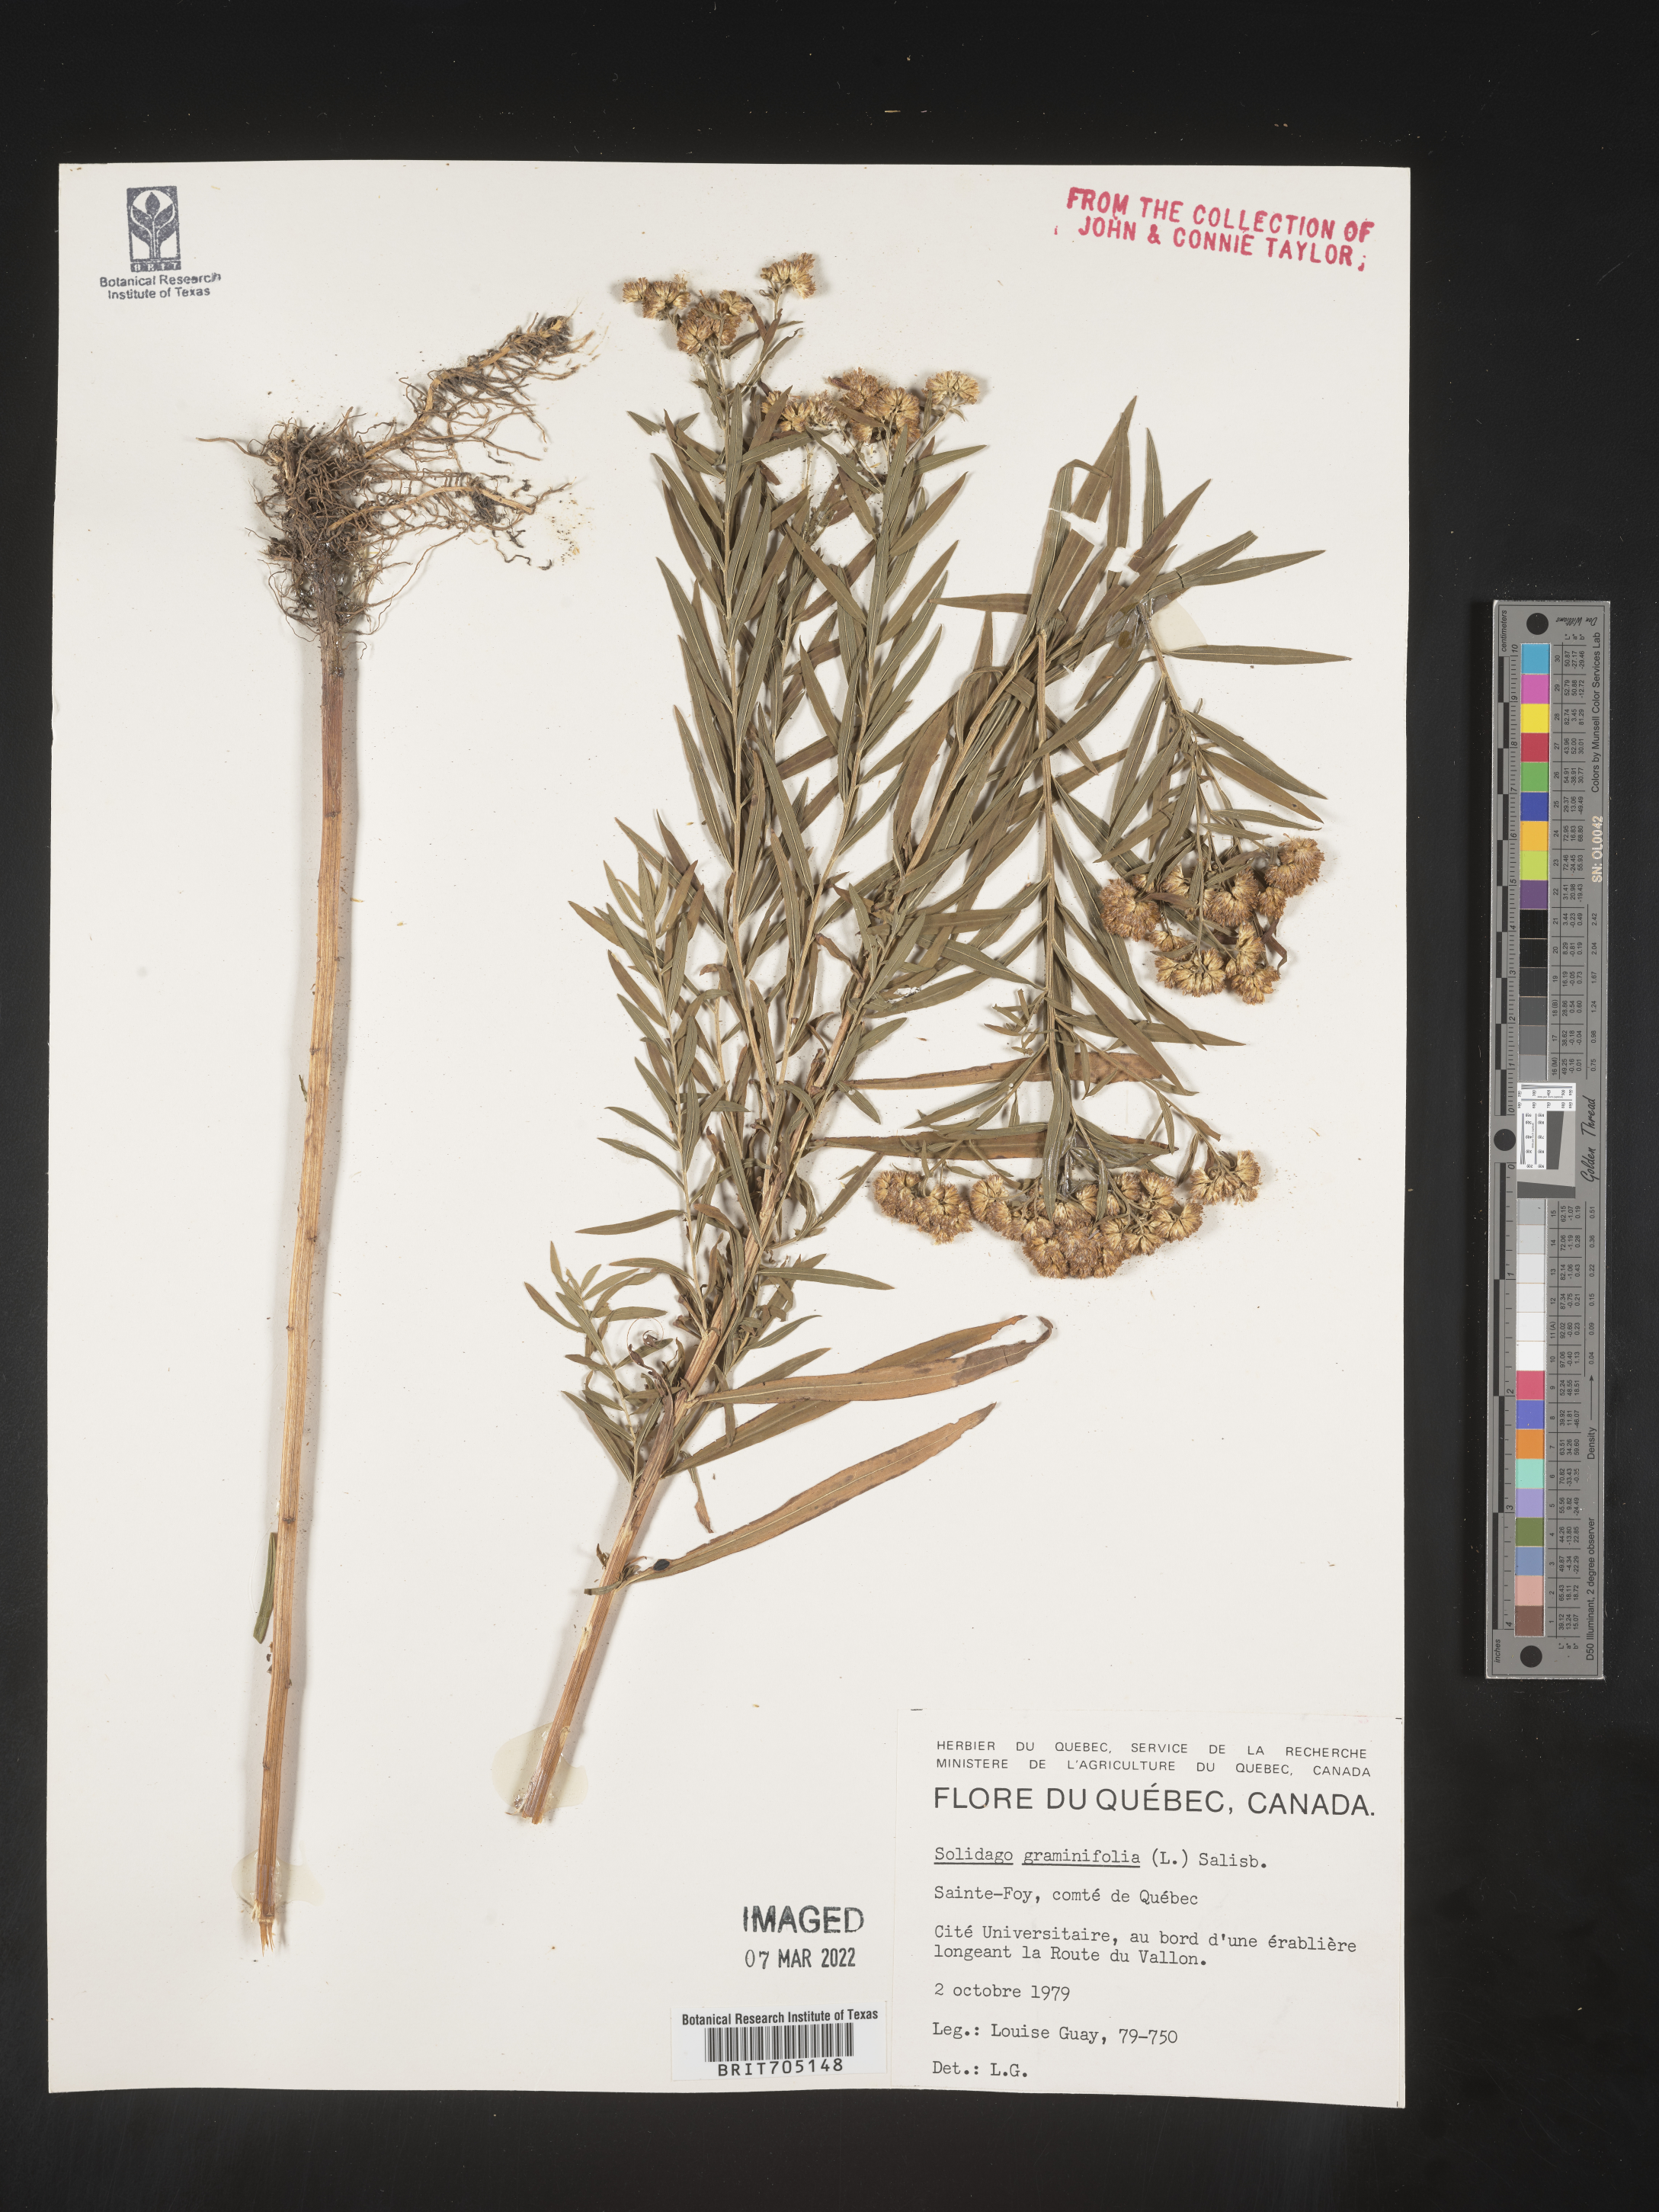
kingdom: Plantae
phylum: Tracheophyta
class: Magnoliopsida
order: Asterales
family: Asteraceae
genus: Euthamia
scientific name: Euthamia graminifolia
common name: Common goldentop
